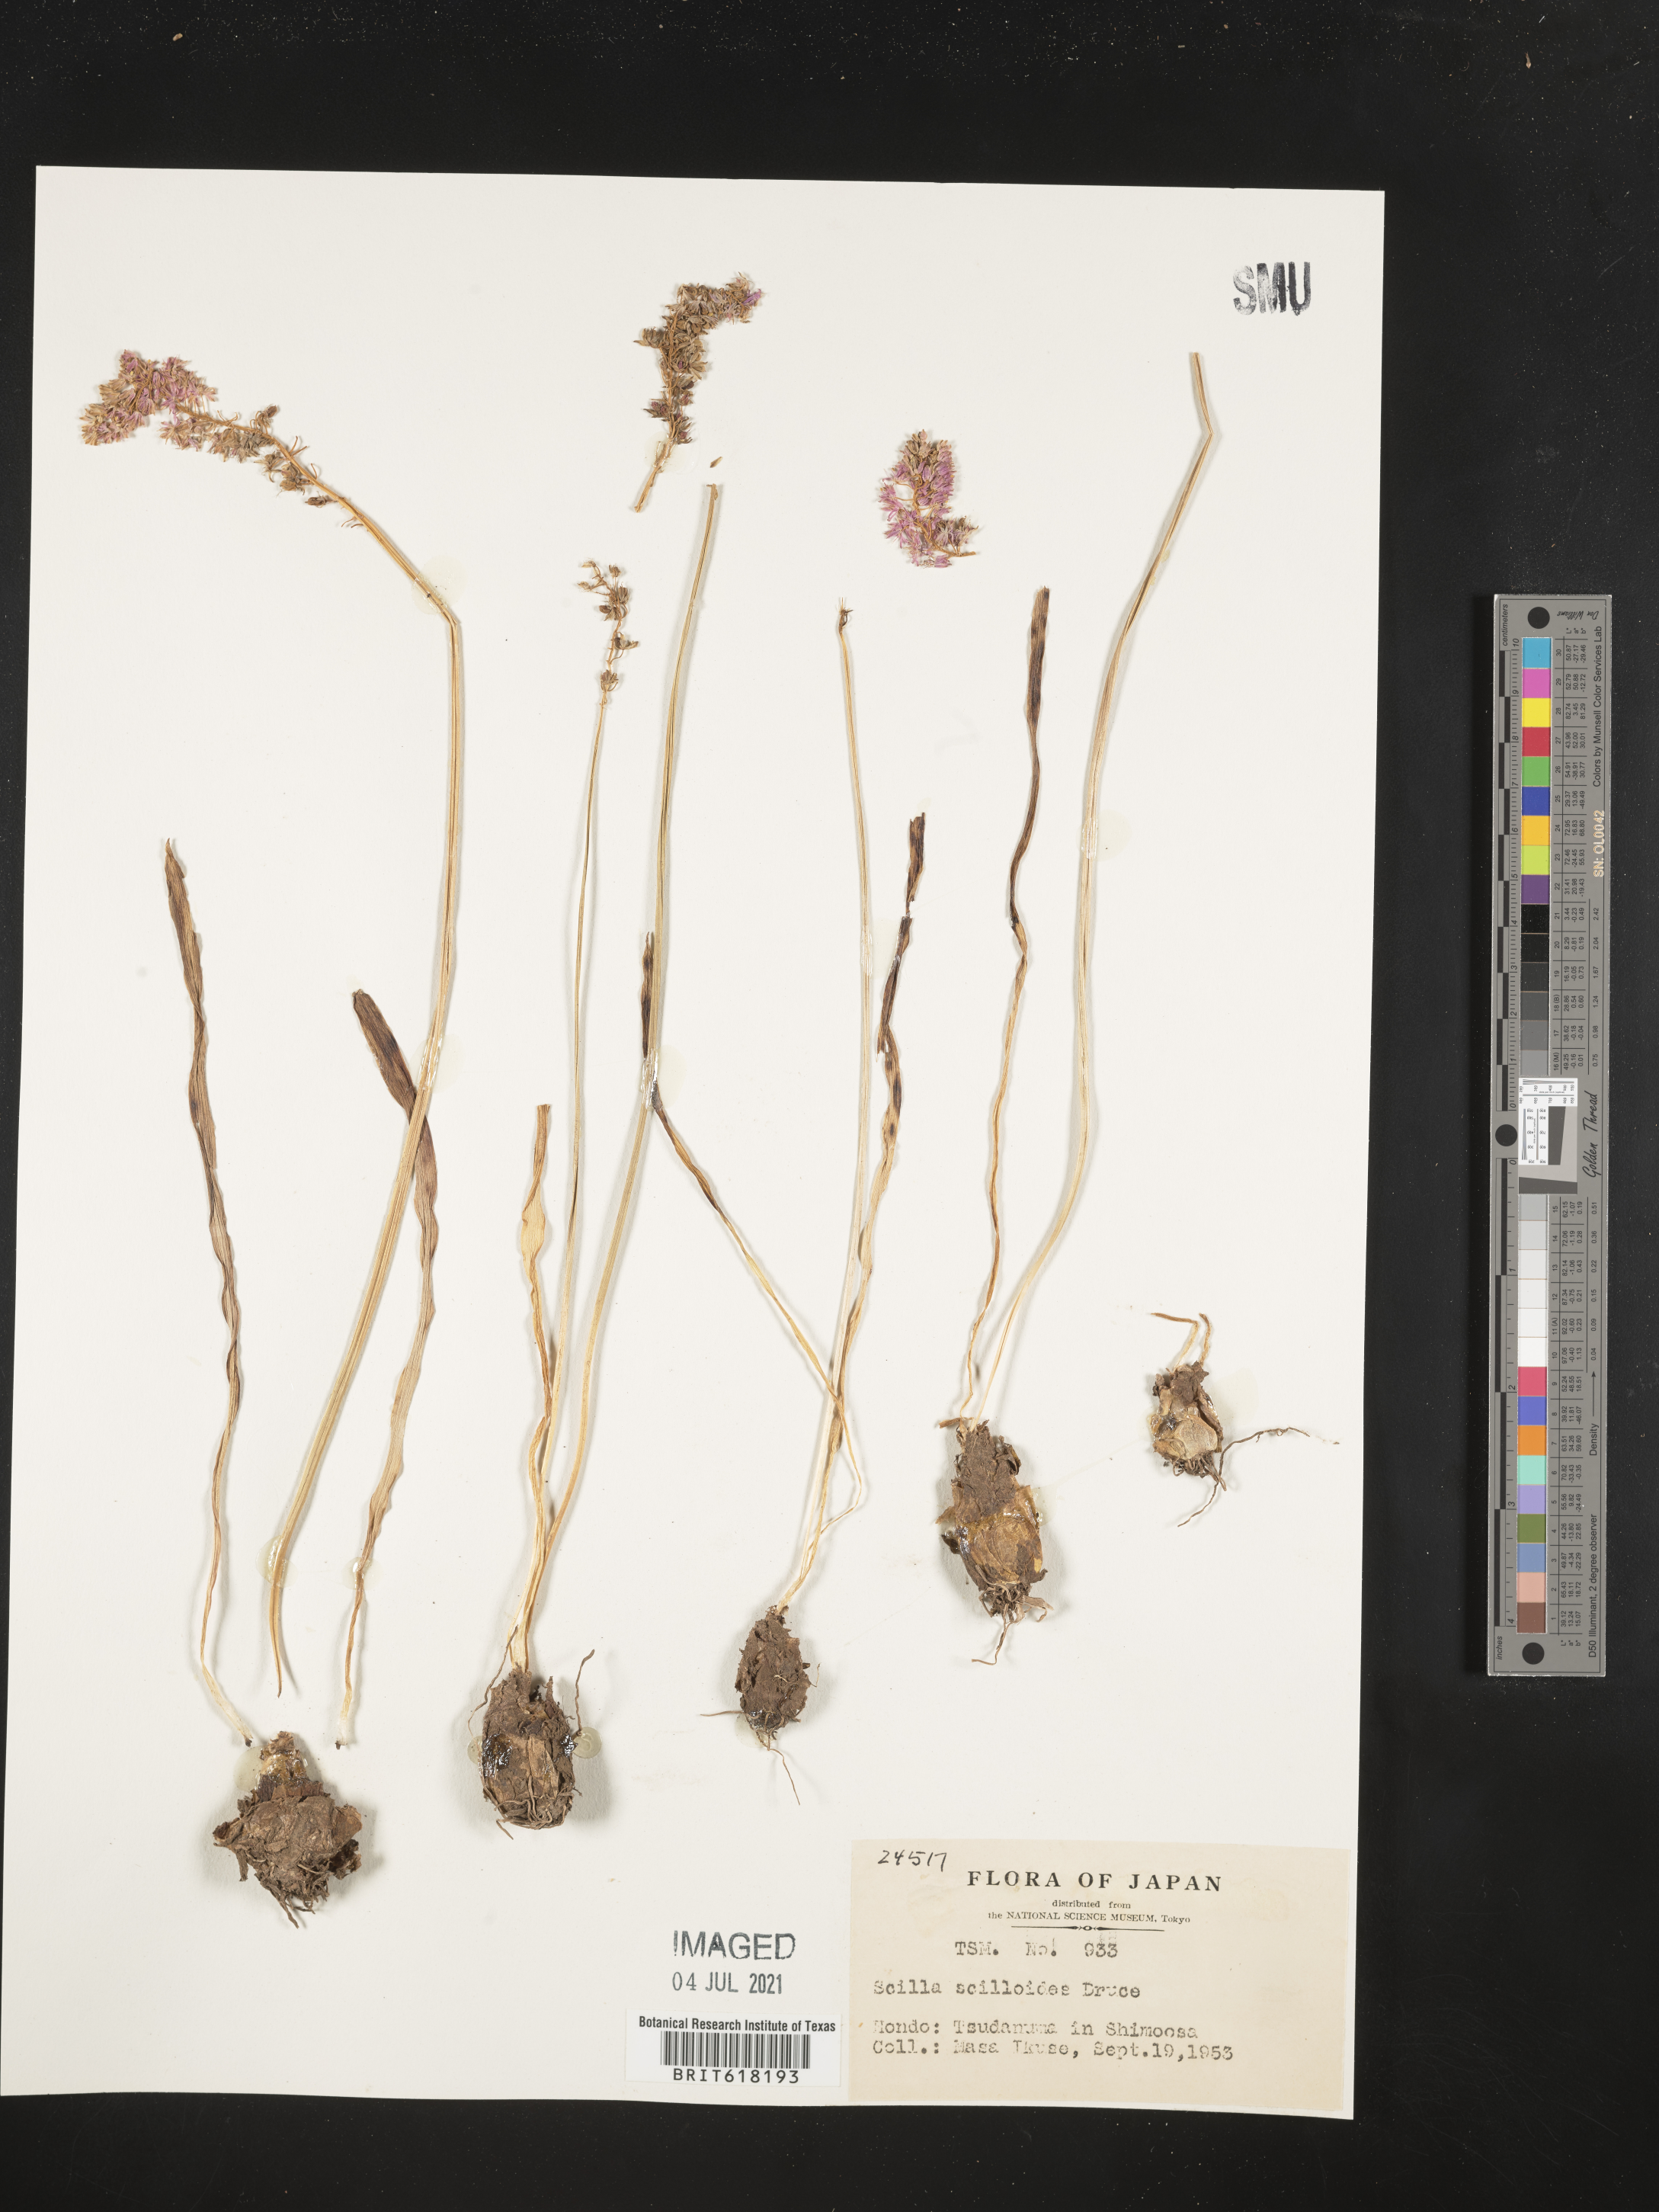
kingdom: Plantae
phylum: Tracheophyta
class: Liliopsida
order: Asparagales
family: Asparagaceae
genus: Barnardia
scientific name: Barnardia japonica
